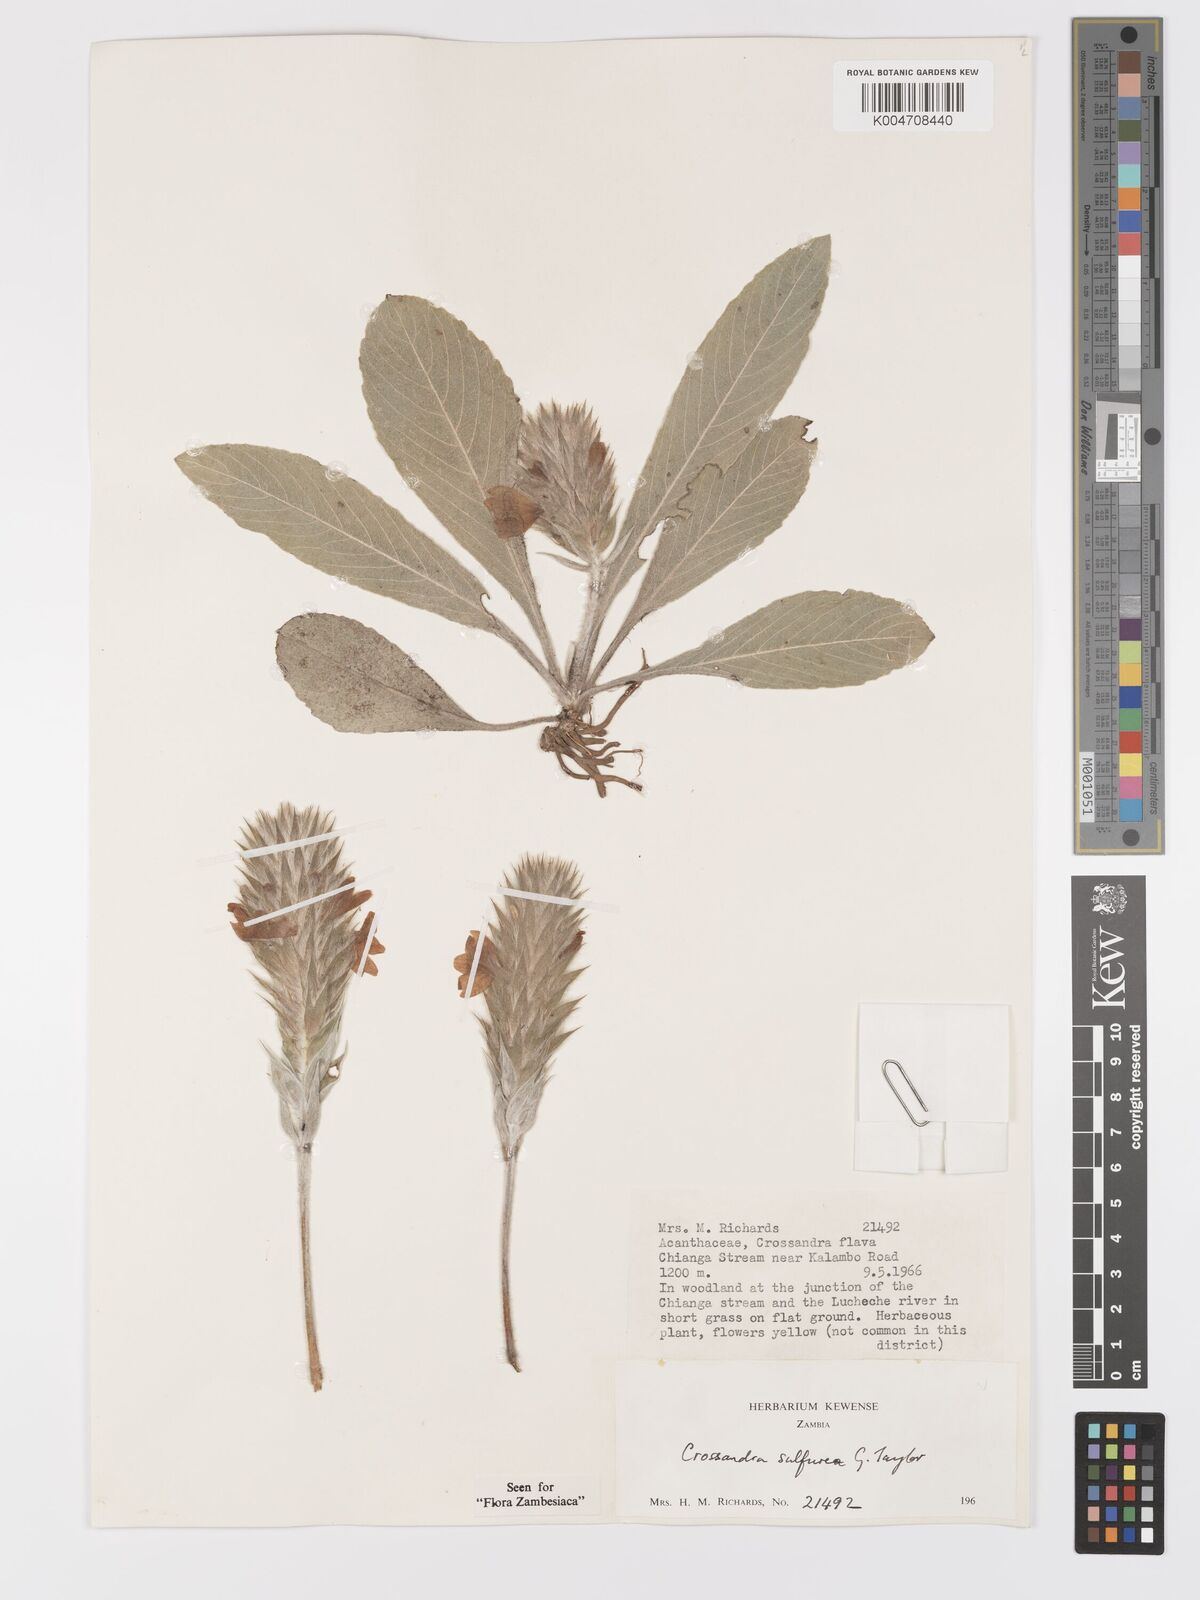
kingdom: Plantae
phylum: Tracheophyta
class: Magnoliopsida
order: Lamiales
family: Acanthaceae
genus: Crossandra
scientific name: Crossandra sulphurea
